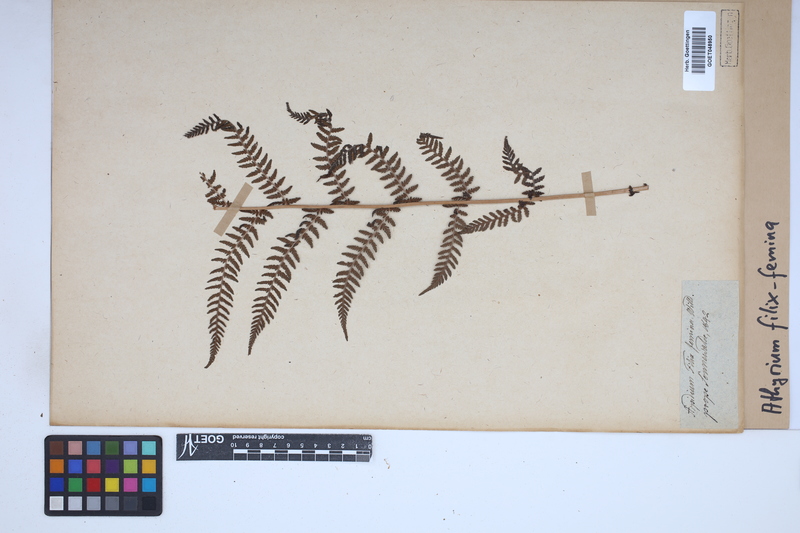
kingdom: Plantae
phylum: Tracheophyta
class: Polypodiopsida
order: Polypodiales
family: Athyriaceae
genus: Athyrium
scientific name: Athyrium filix-femina
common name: Lady fern
